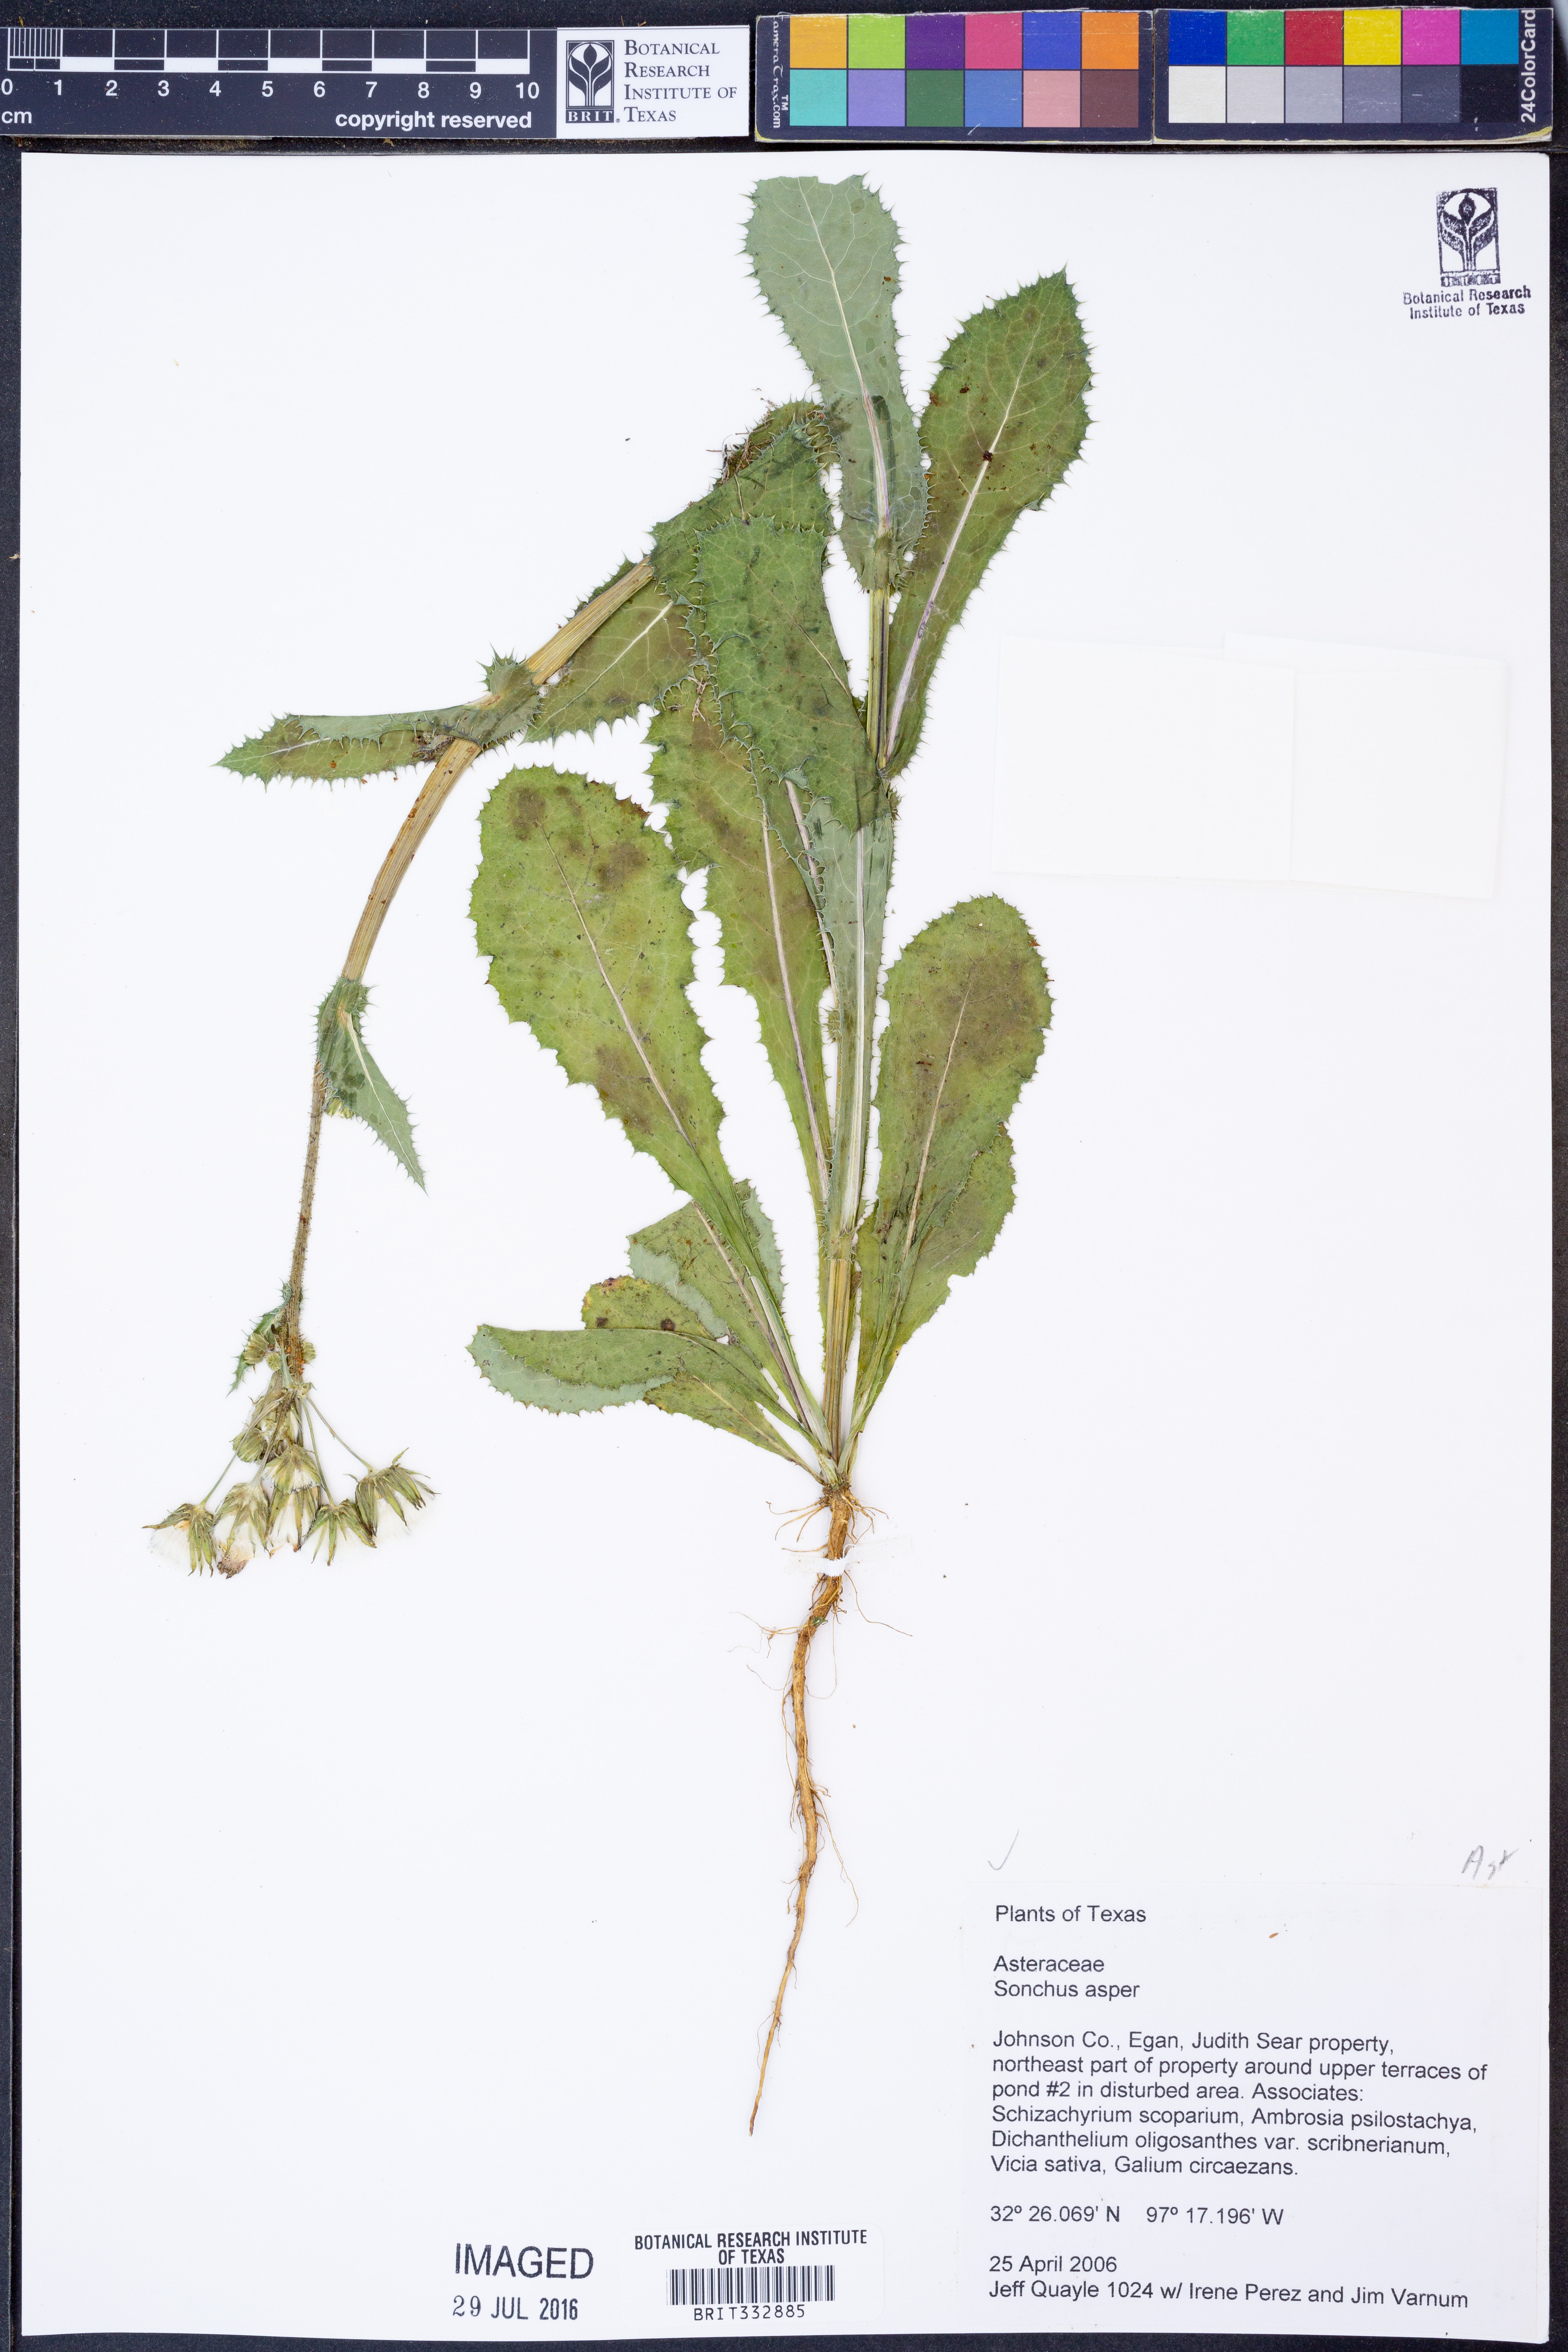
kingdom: Plantae
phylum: Tracheophyta
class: Magnoliopsida
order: Asterales
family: Asteraceae
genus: Sonchus
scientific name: Sonchus asper
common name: Prickly sow-thistle
